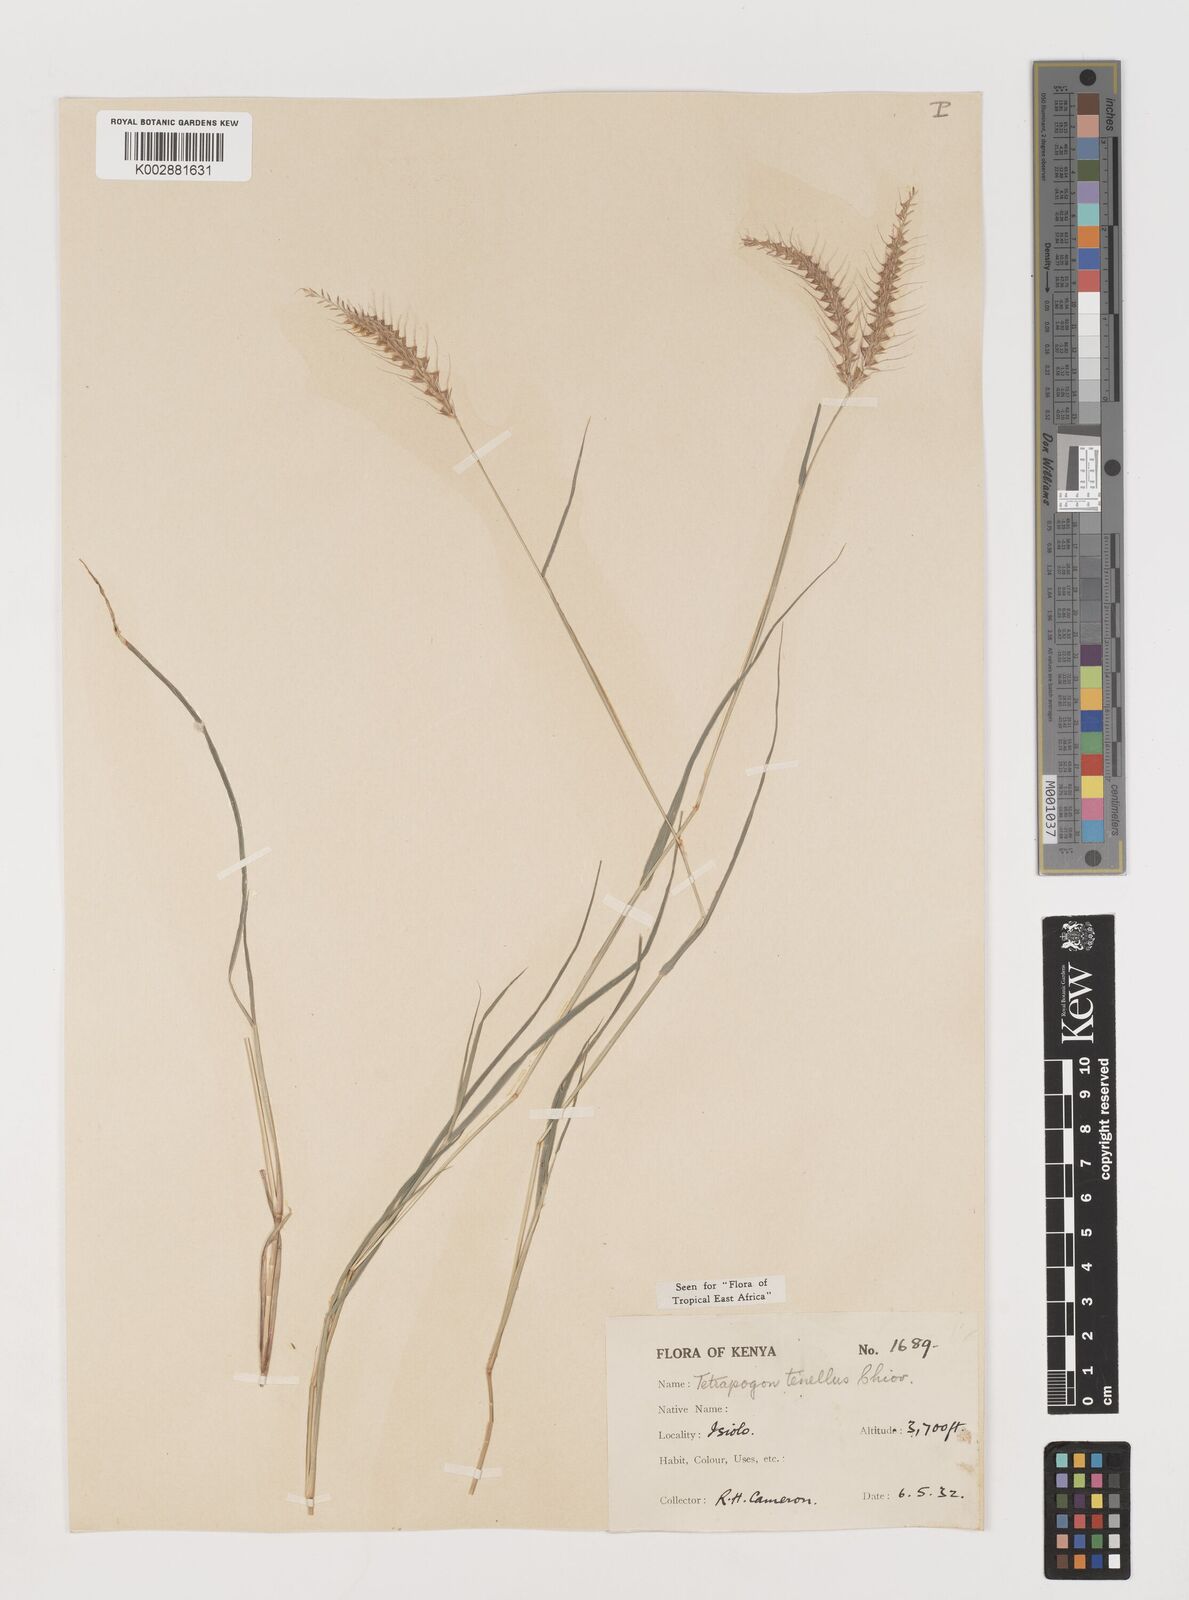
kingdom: Plantae
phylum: Tracheophyta
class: Liliopsida
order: Poales
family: Poaceae
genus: Tetrapogon
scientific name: Tetrapogon tenellus
